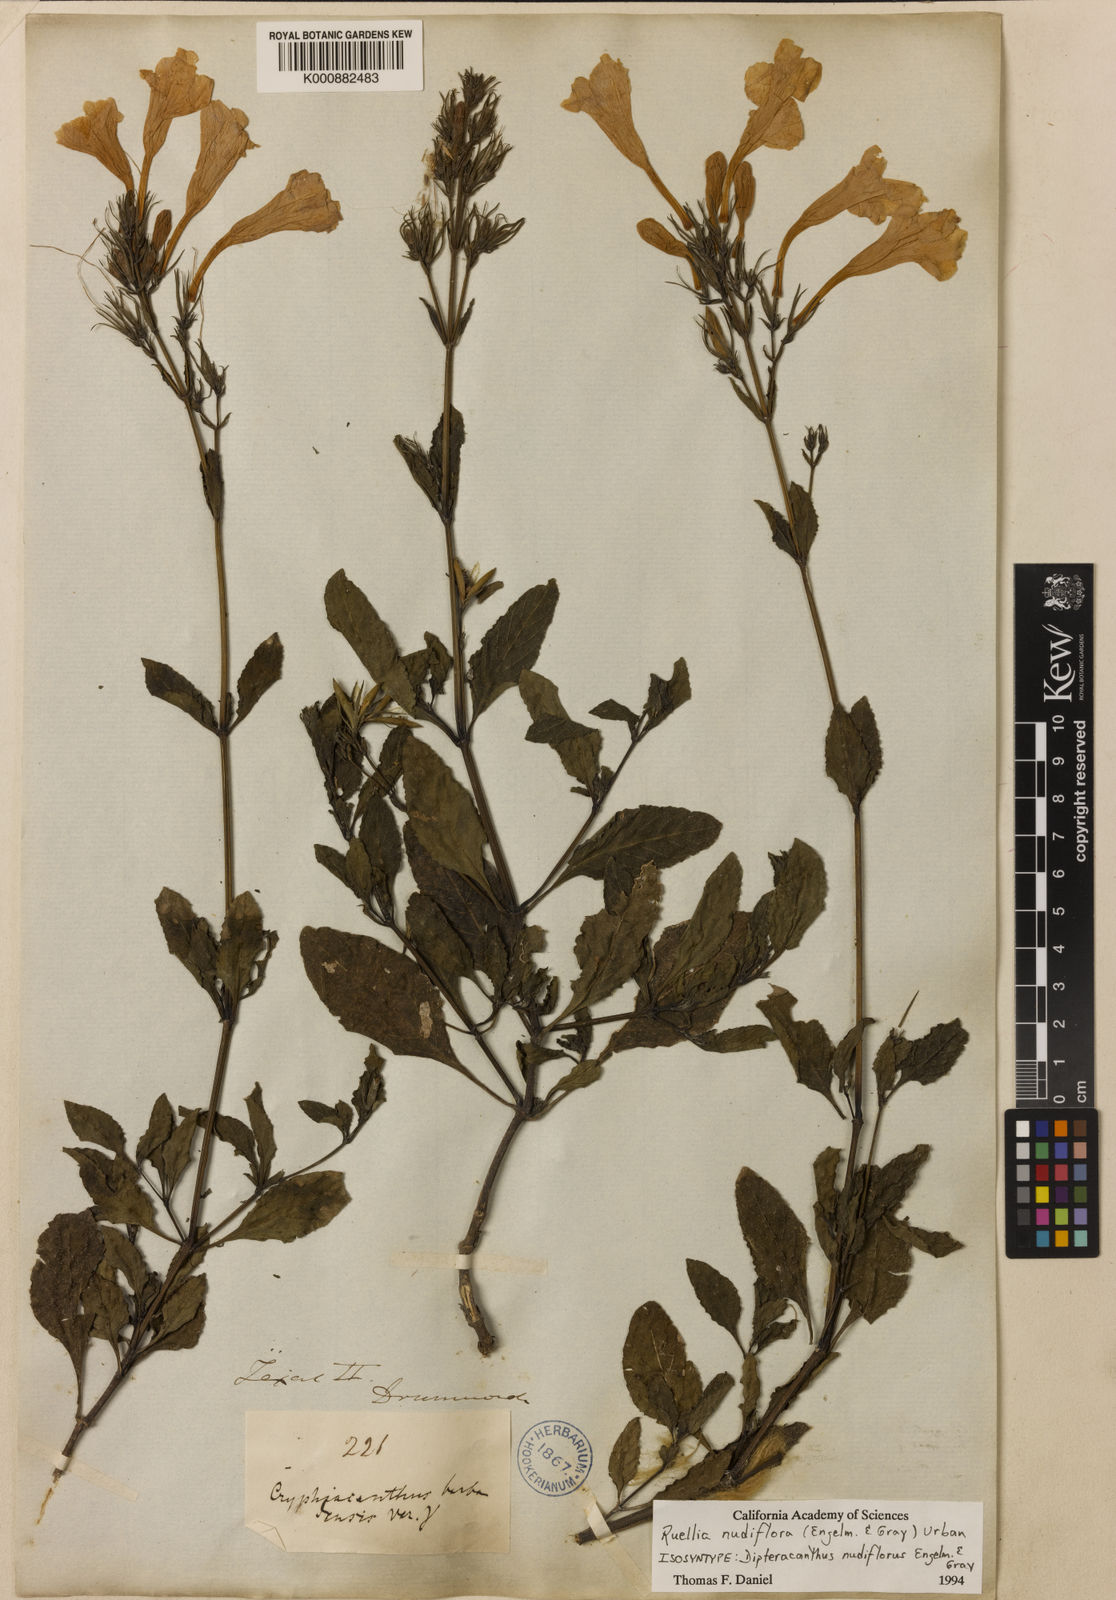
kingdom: Plantae
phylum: Tracheophyta
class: Magnoliopsida
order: Lamiales
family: Acanthaceae
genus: Ruellia
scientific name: Ruellia ciliatiflora
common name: Hairyflower wild petunia
